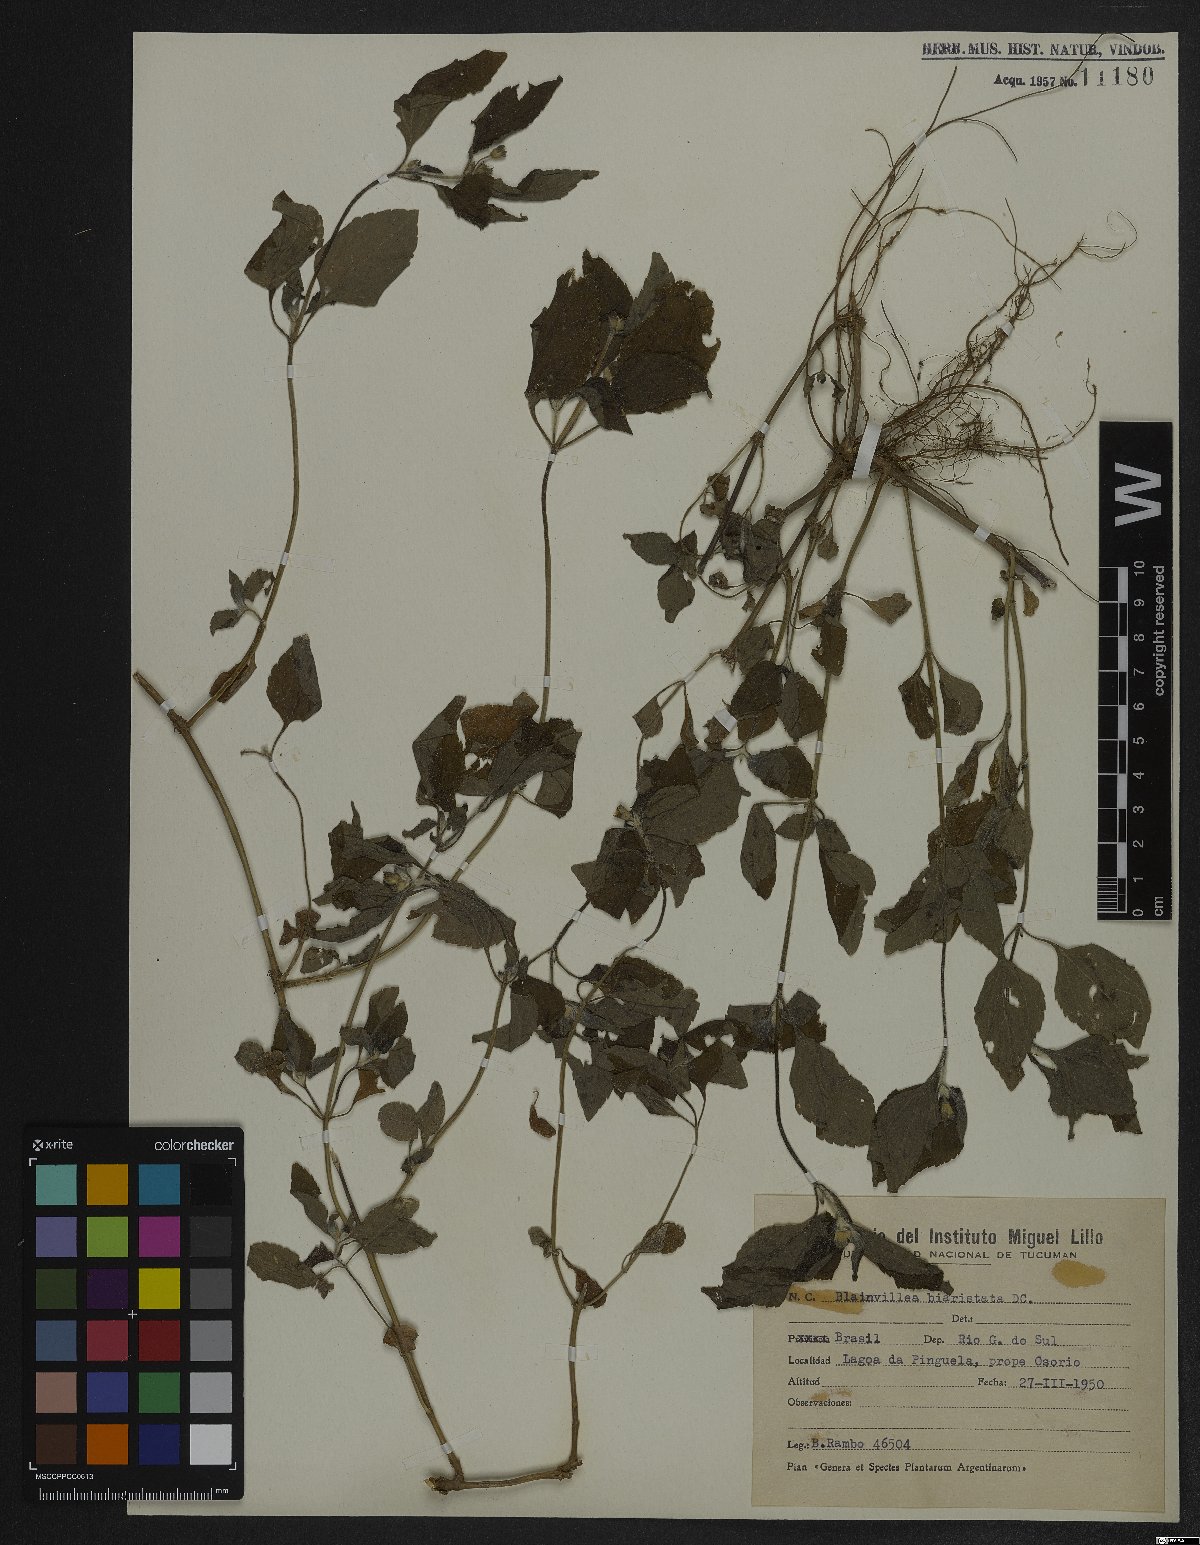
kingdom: Plantae
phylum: Tracheophyta
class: Magnoliopsida
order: Asterales
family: Asteraceae
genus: Calyptocarpus
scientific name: Calyptocarpus brasiliensis
